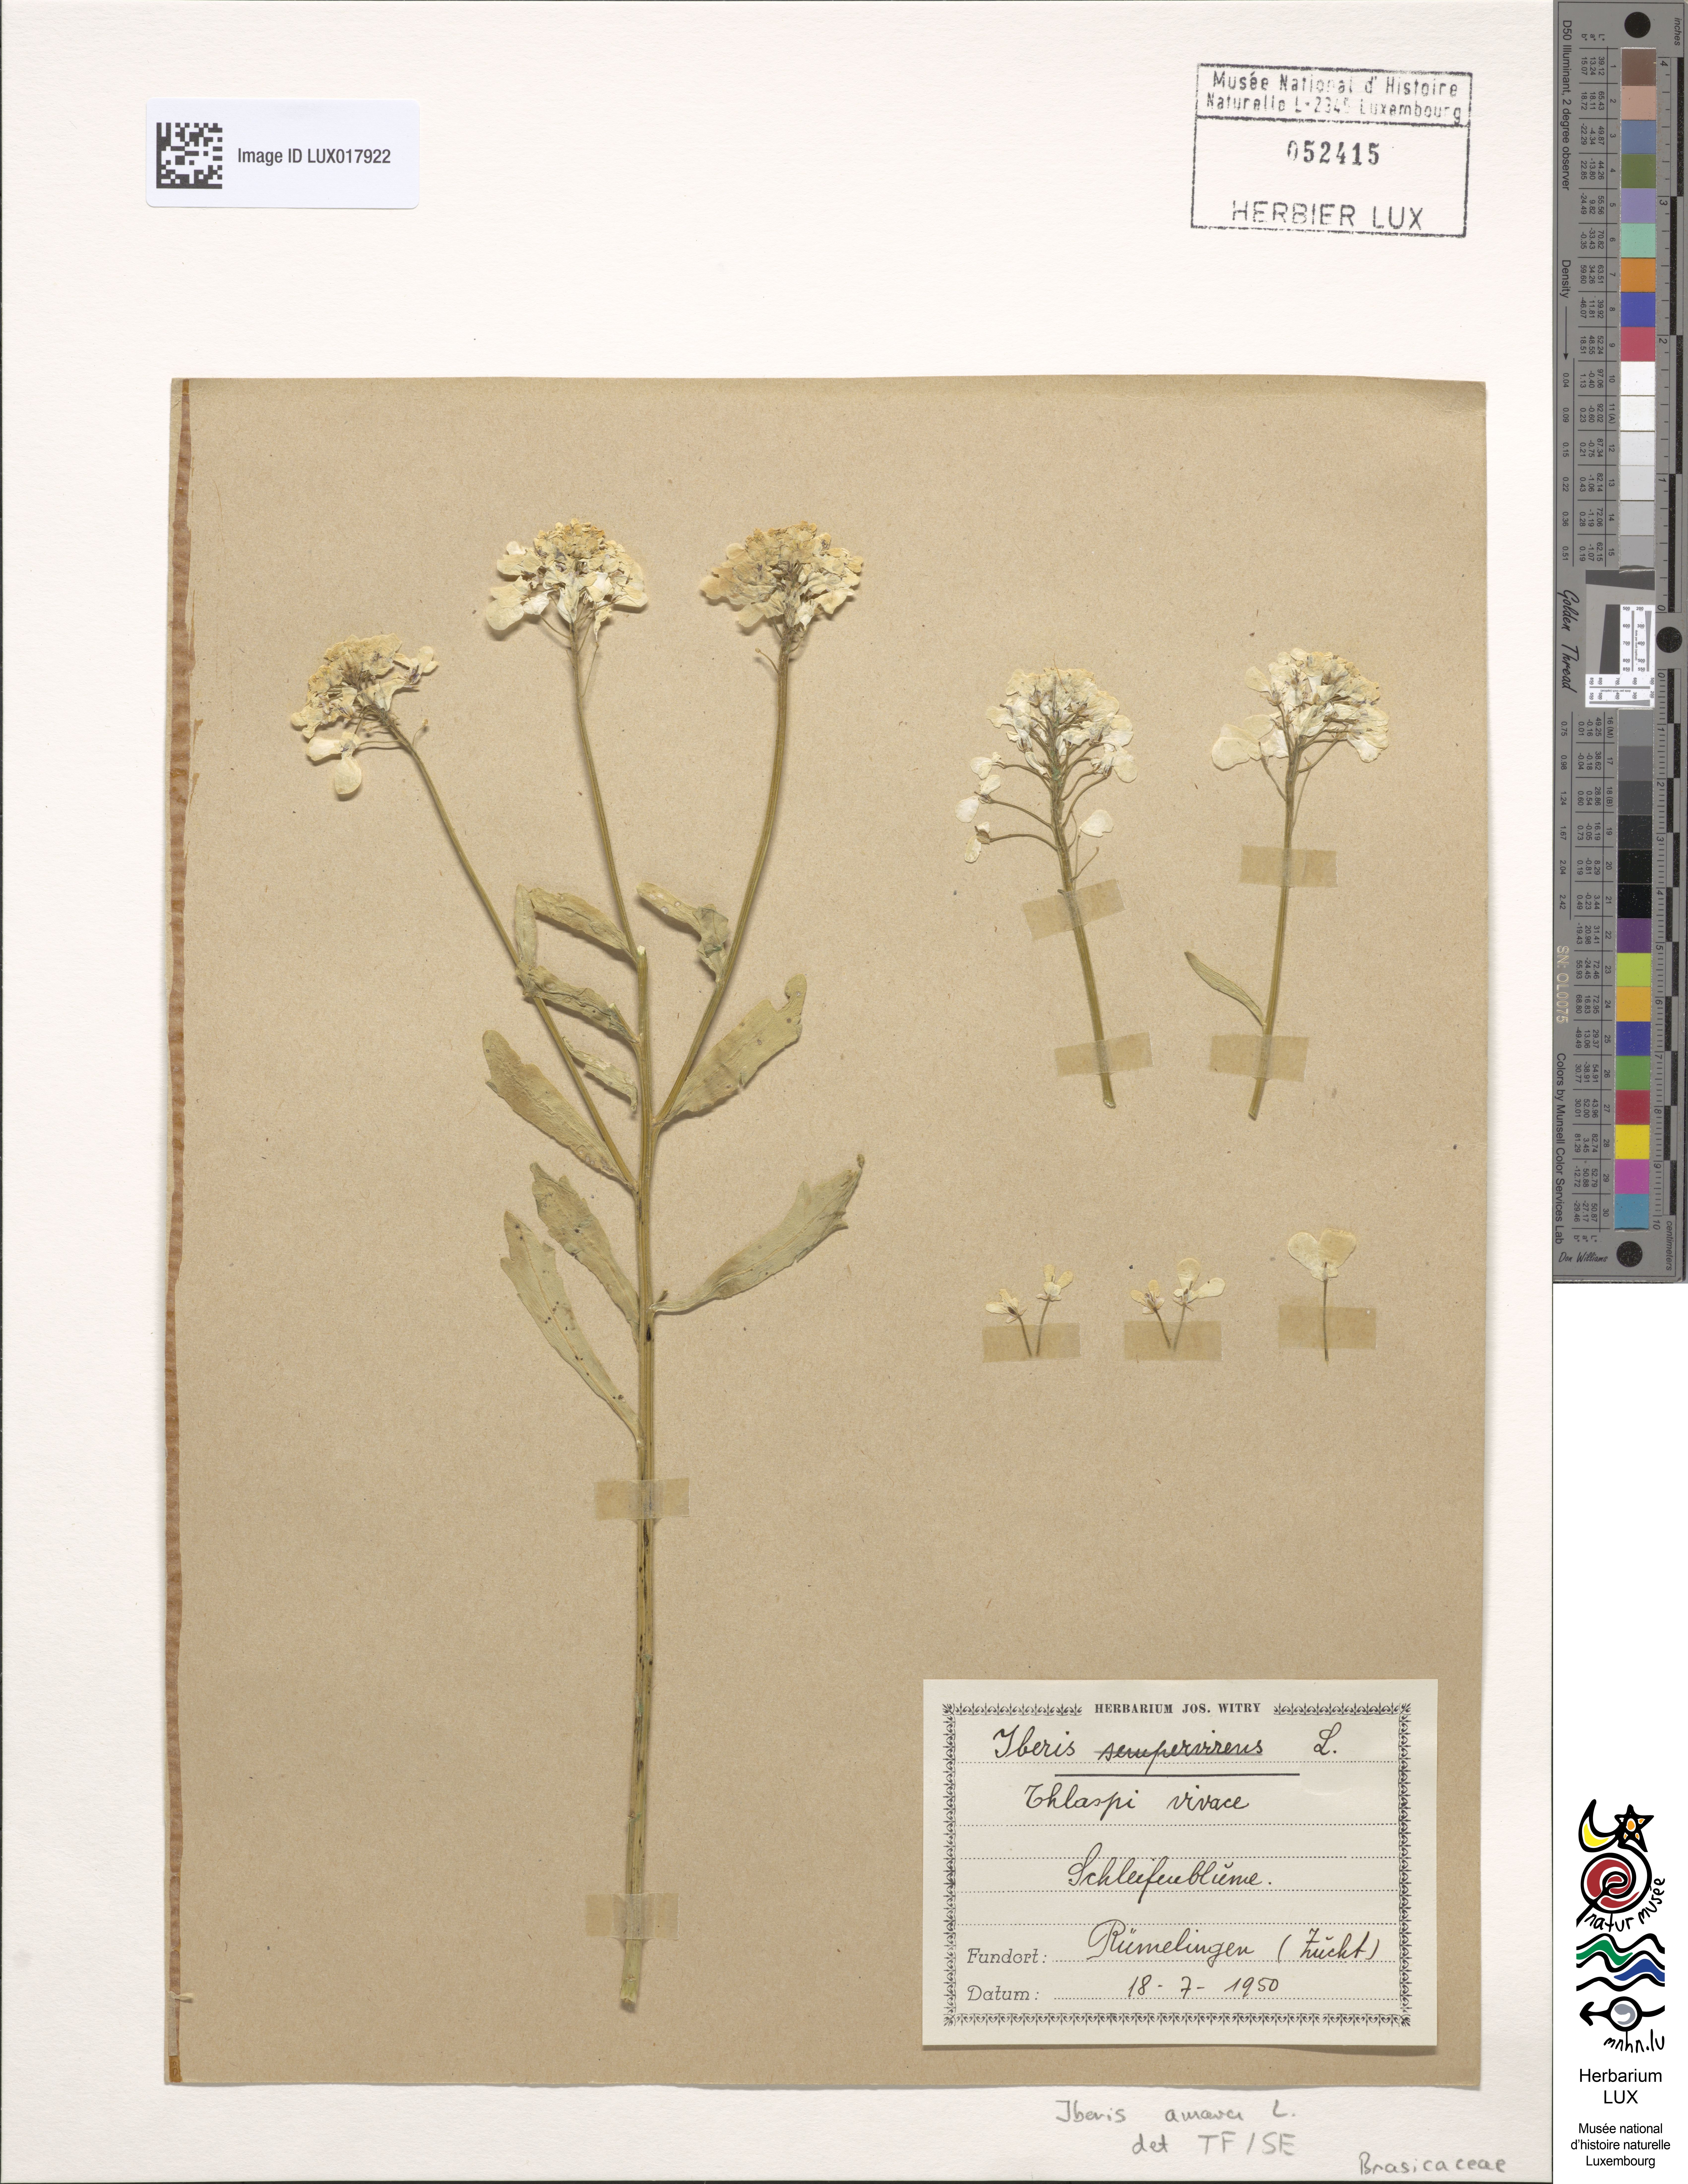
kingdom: Plantae
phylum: Tracheophyta
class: Magnoliopsida
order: Brassicales
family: Brassicaceae
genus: Iberis
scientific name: Iberis amara
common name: Annual candytuft
